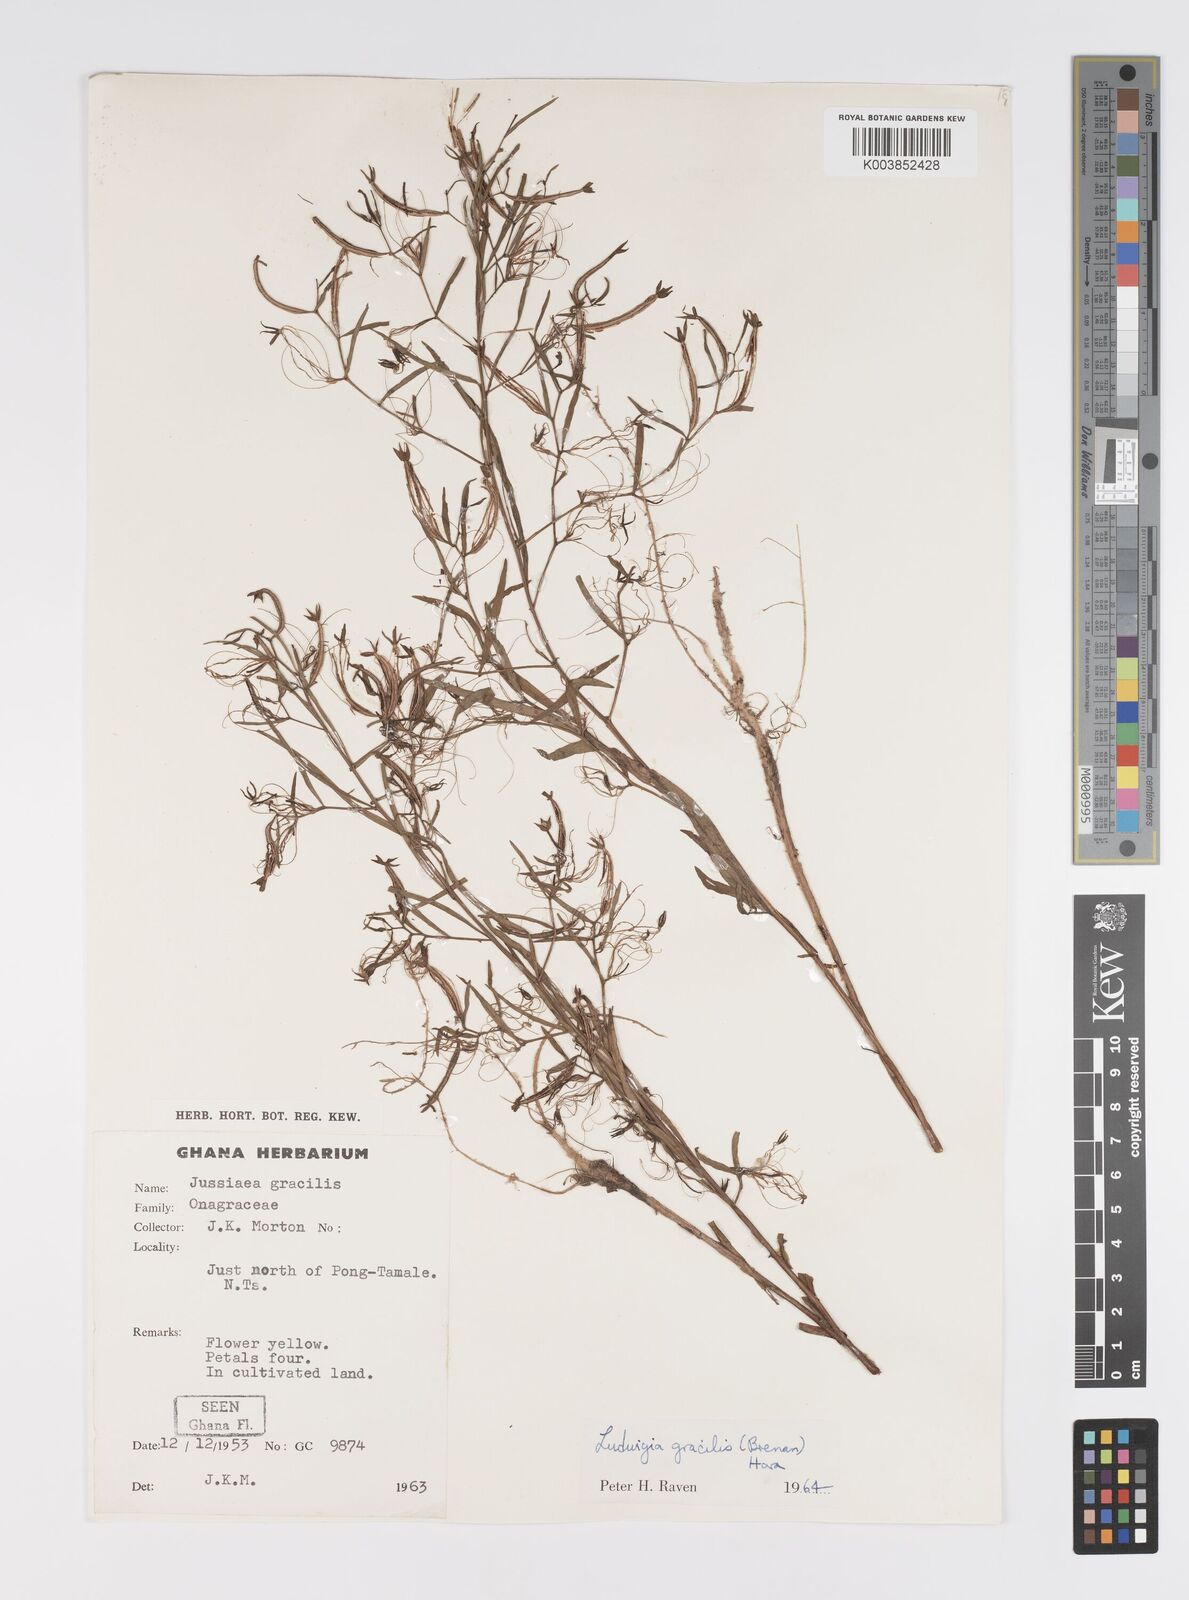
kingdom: Plantae
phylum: Tracheophyta
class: Magnoliopsida
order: Myrtales
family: Onagraceae
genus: Ludwigia
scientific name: Ludwigia brenanii
